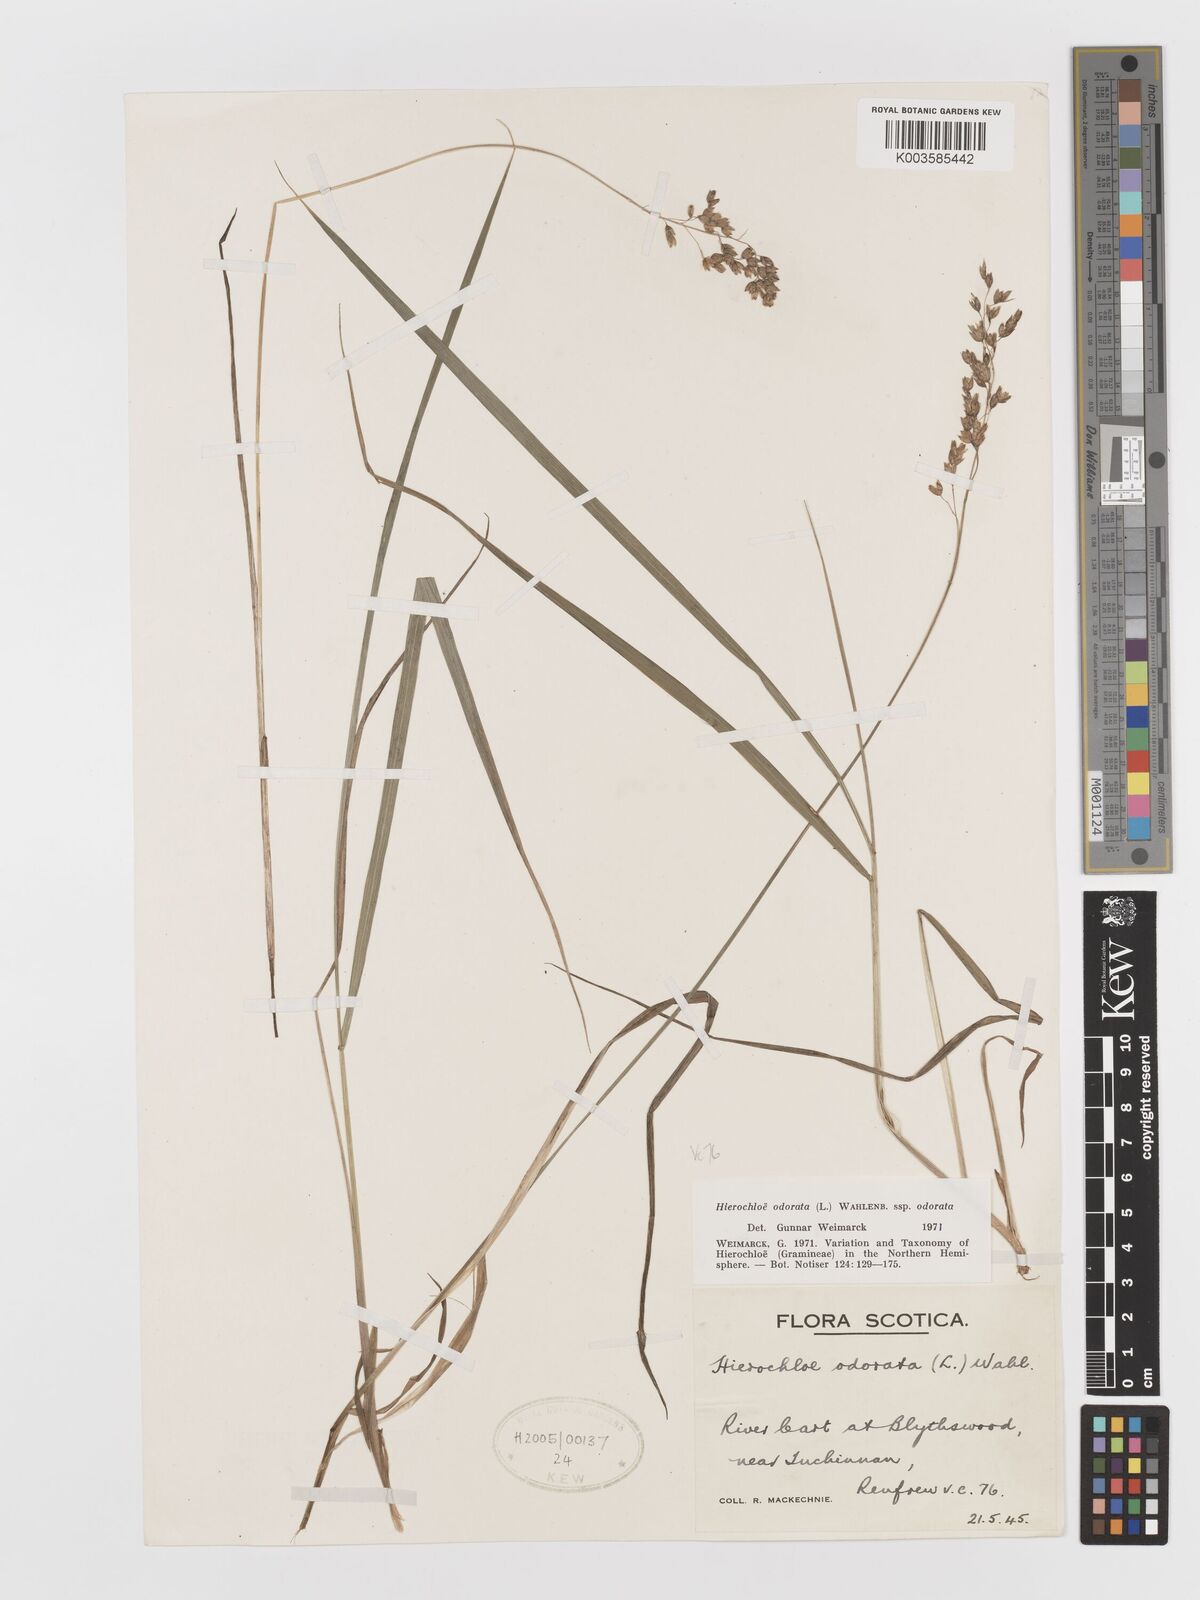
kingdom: Plantae
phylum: Tracheophyta
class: Liliopsida
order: Poales
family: Poaceae
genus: Anthoxanthum
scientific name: Anthoxanthum nitens
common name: Holy grass
